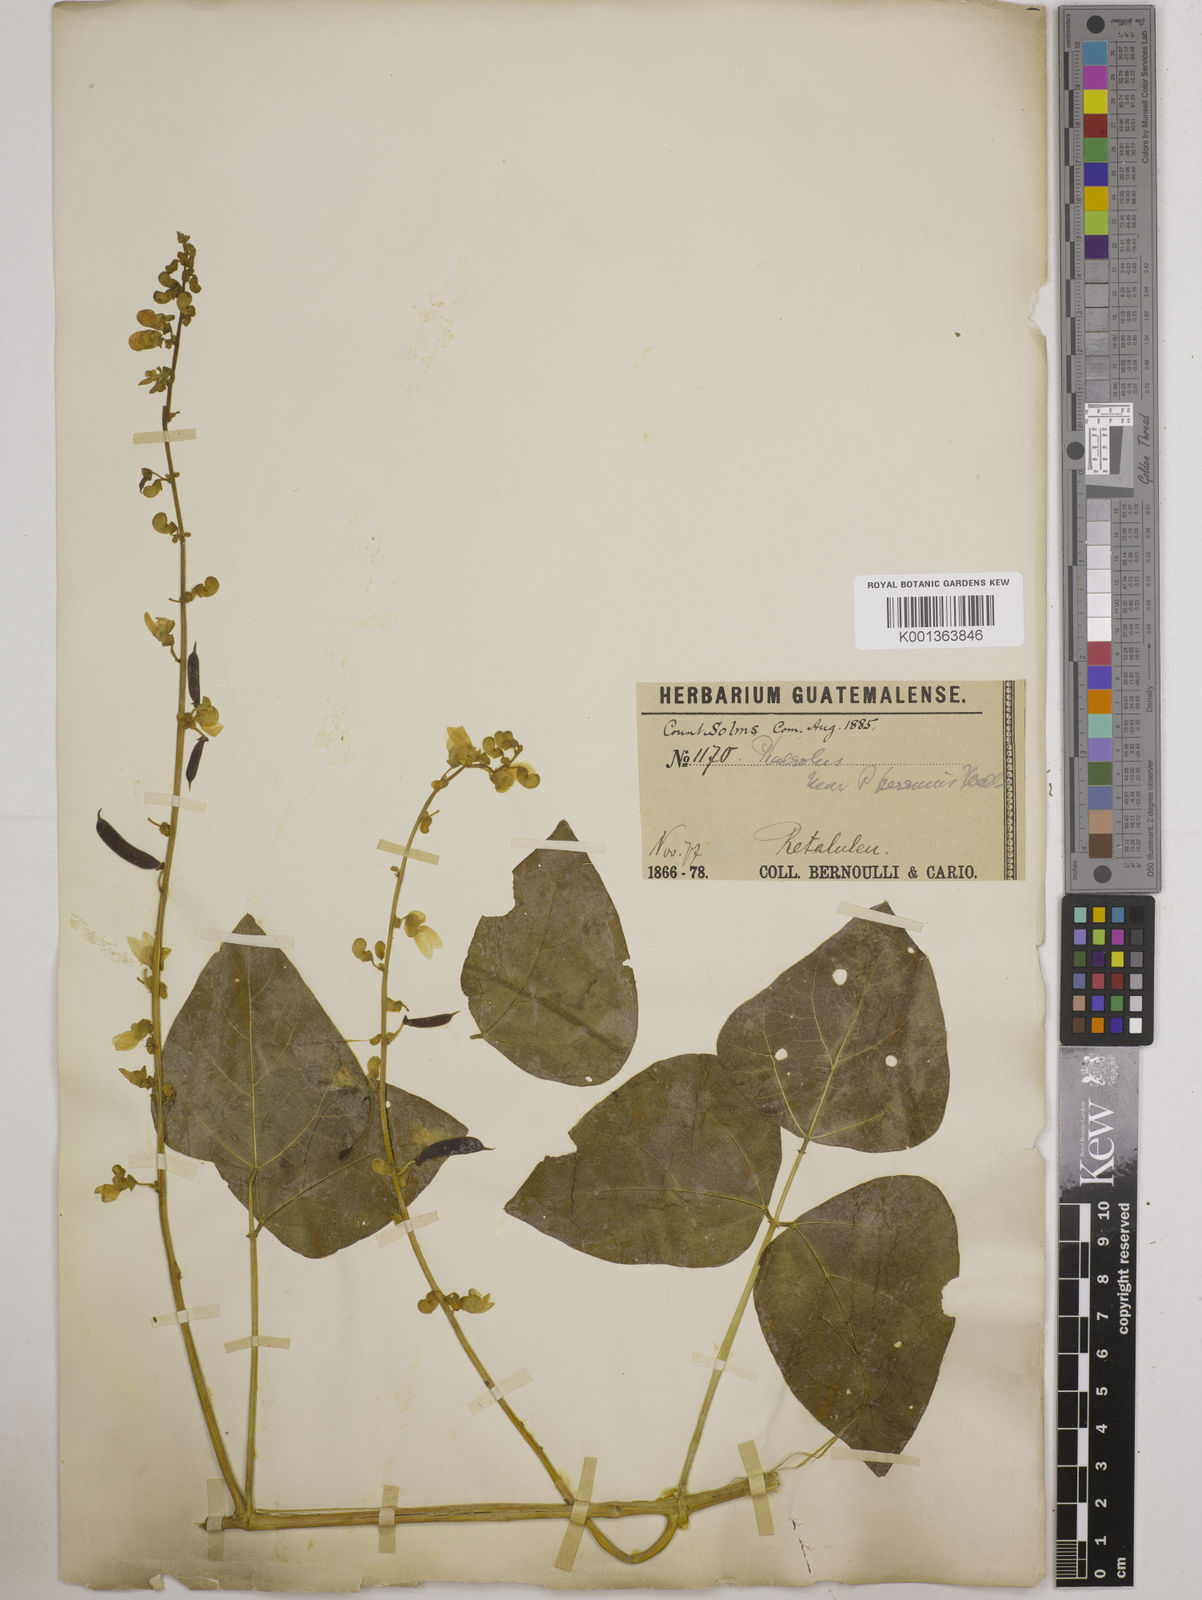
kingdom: Plantae
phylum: Tracheophyta
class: Magnoliopsida
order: Fabales
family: Fabaceae
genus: Phaseolus
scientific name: Phaseolus lunatus
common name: Sieva bean
